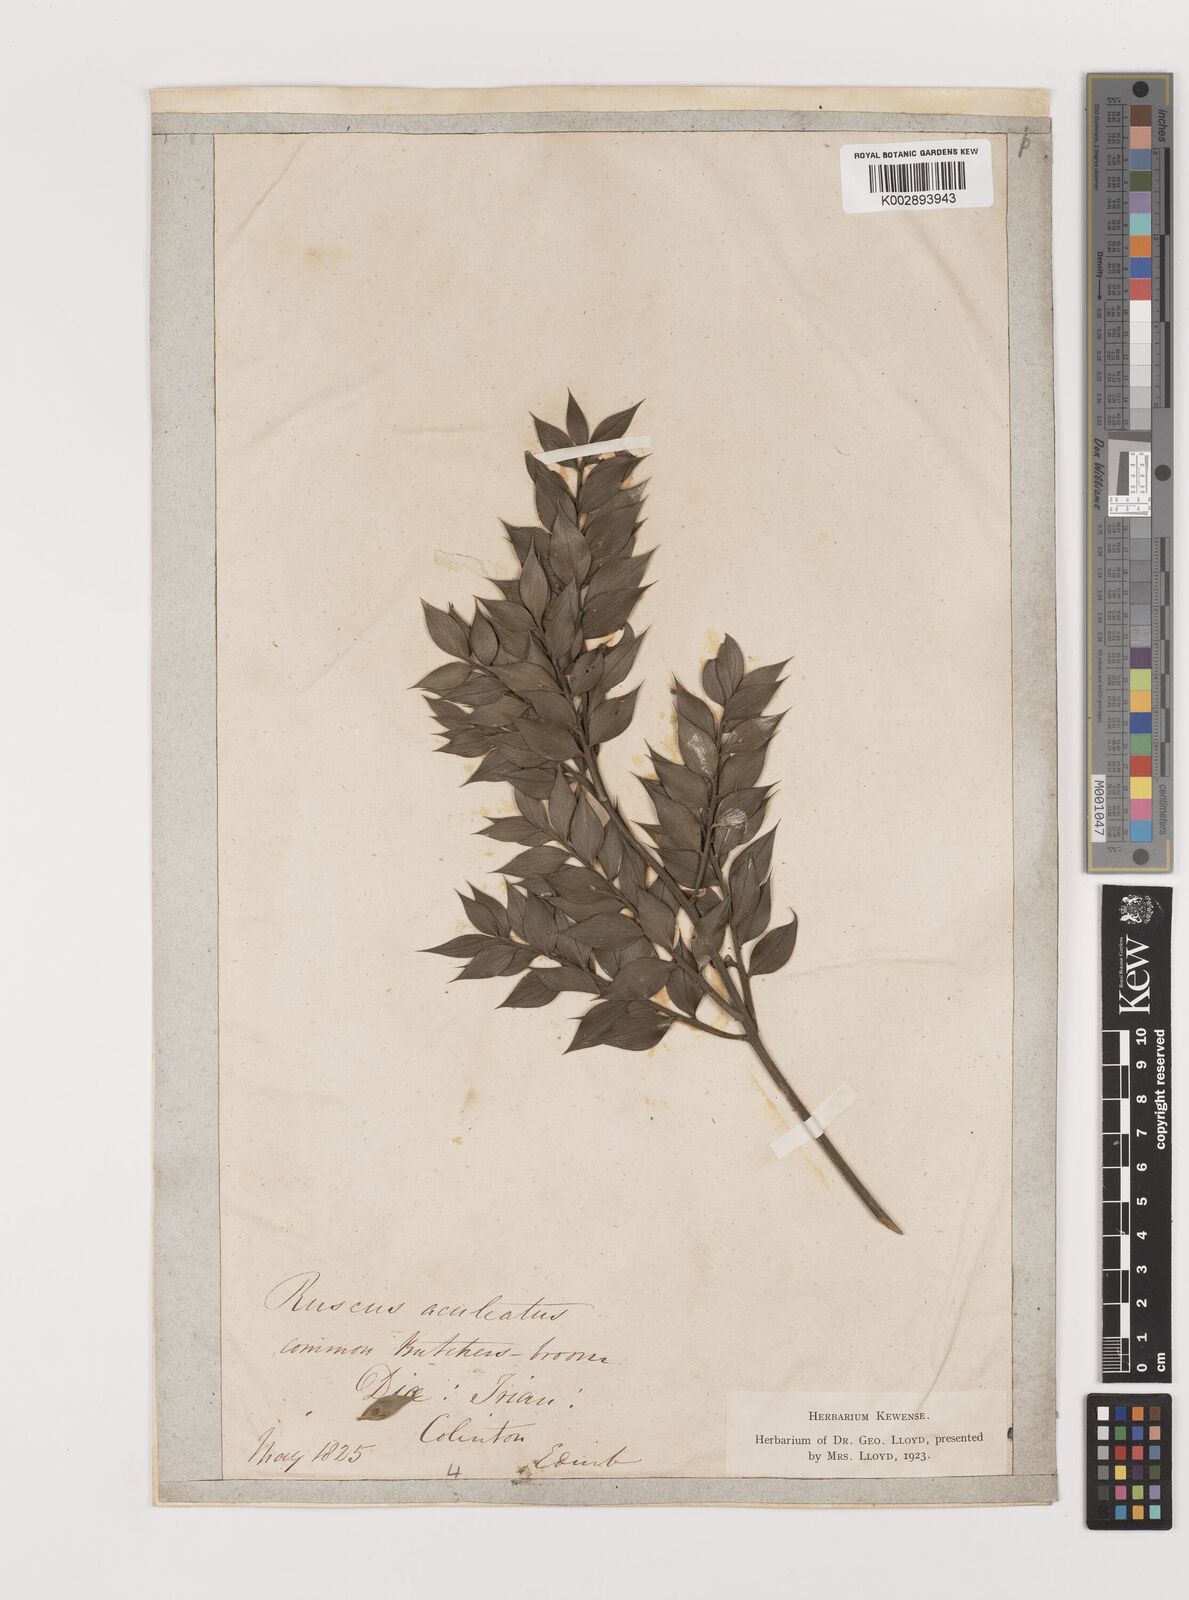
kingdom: Plantae
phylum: Tracheophyta
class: Liliopsida
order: Asparagales
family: Asparagaceae
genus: Ruscus
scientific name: Ruscus aculeatus
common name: Butcher's-broom
